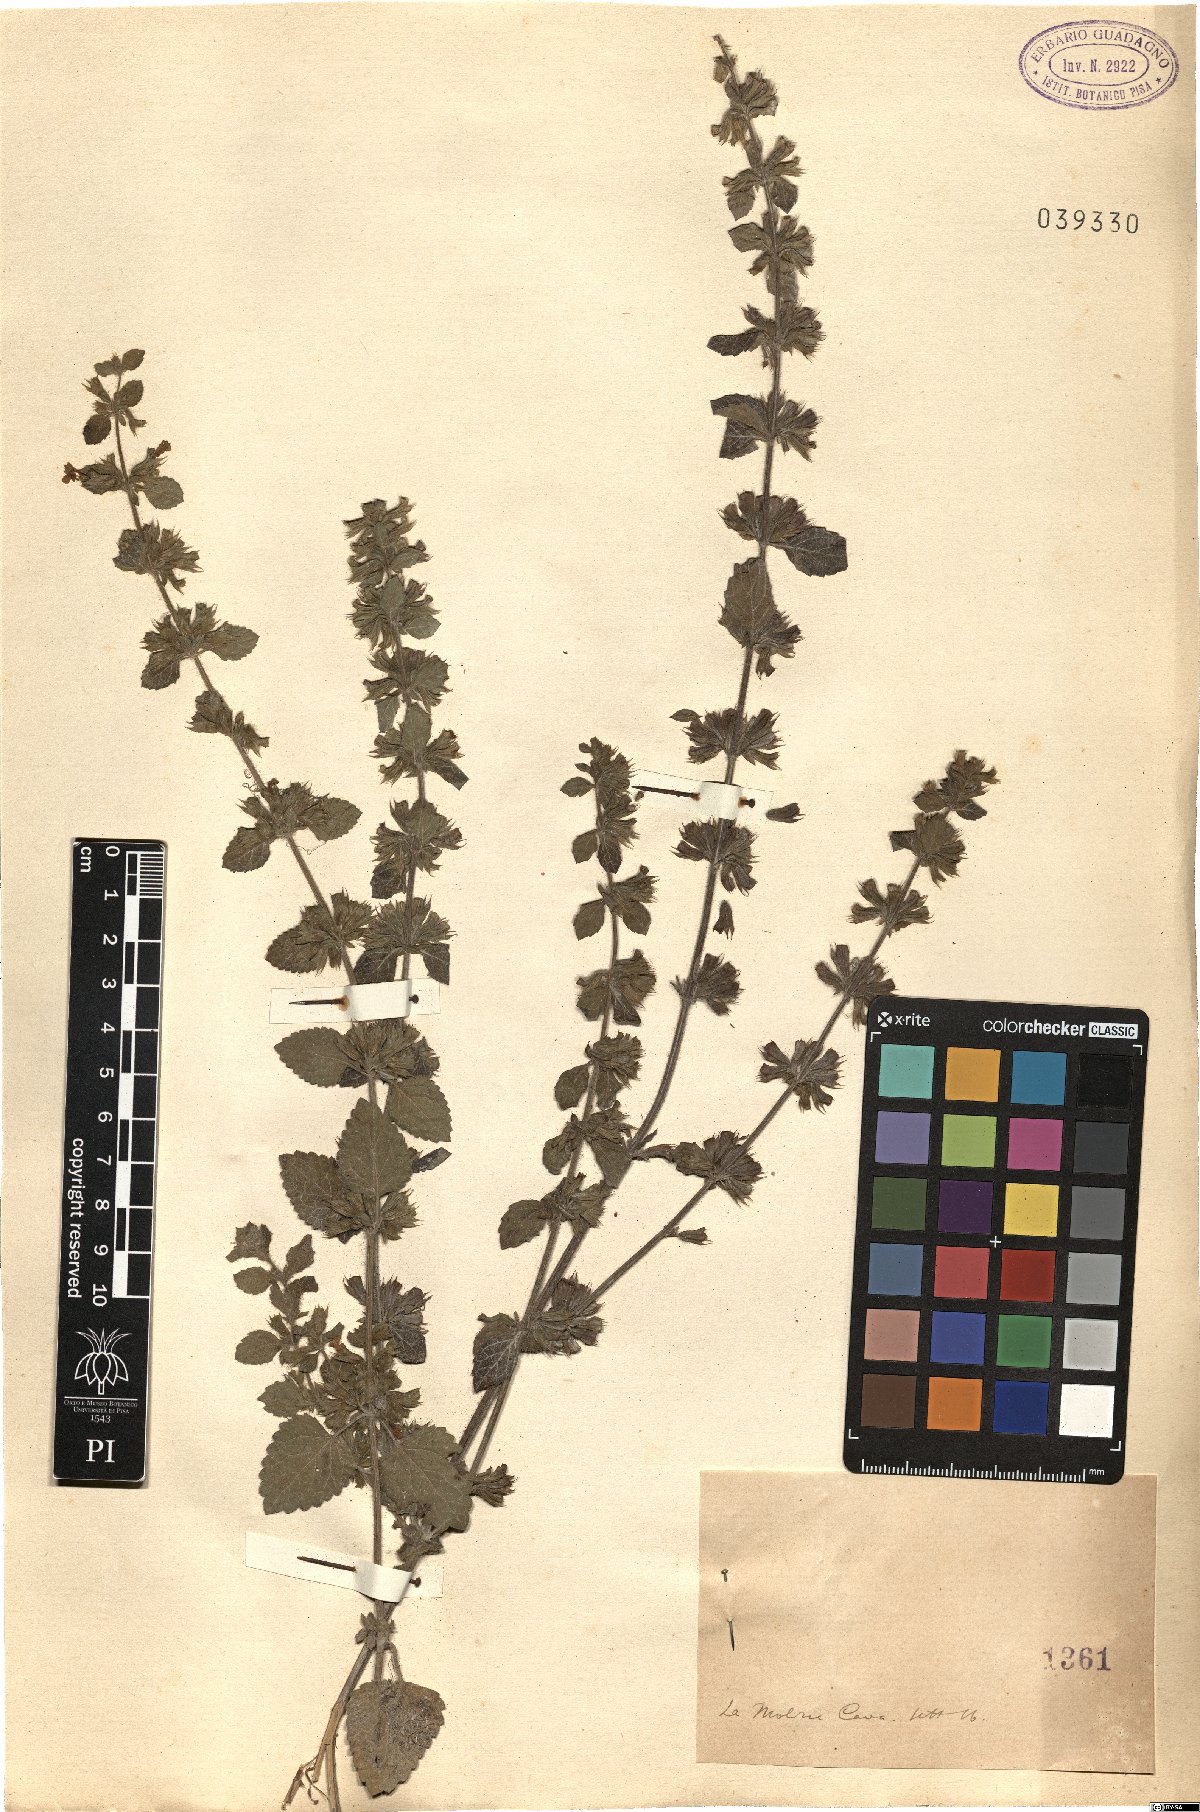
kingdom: Plantae
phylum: Tracheophyta
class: Magnoliopsida
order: Lamiales
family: Lamiaceae
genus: Melissa
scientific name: Melissa
